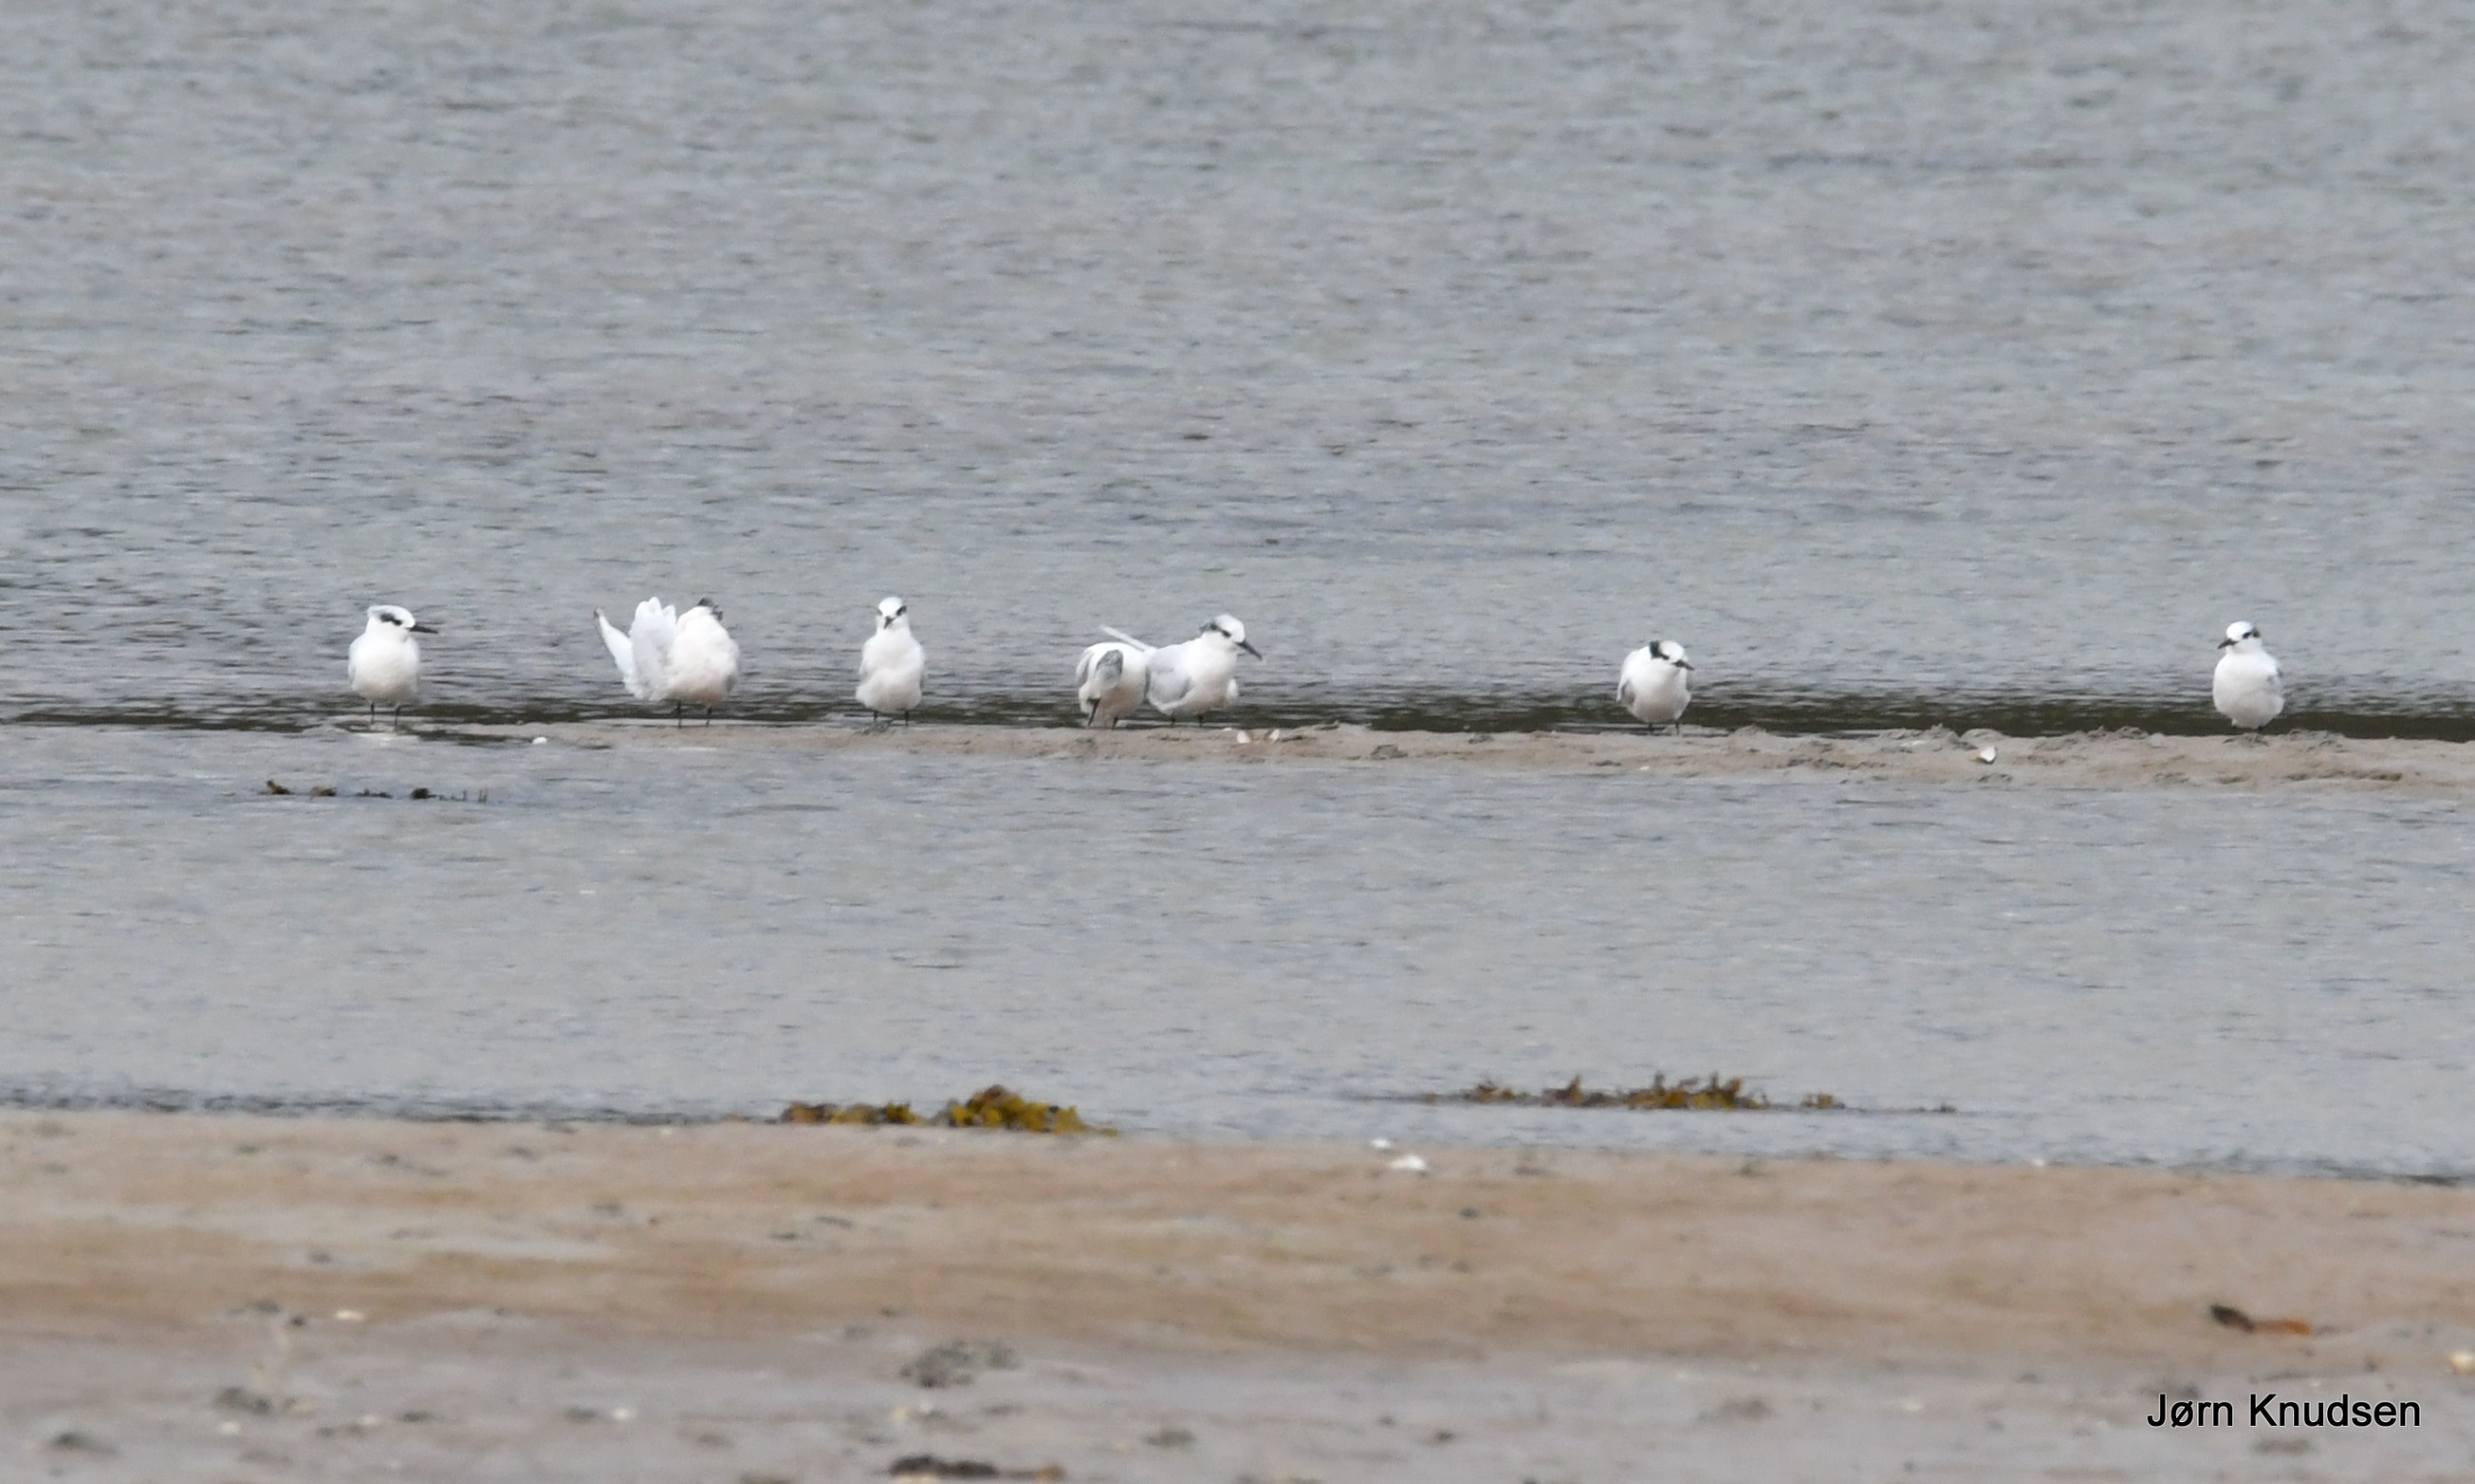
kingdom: Animalia
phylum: Chordata
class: Aves
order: Charadriiformes
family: Laridae
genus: Thalasseus
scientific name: Thalasseus sandvicensis
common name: Splitterne
